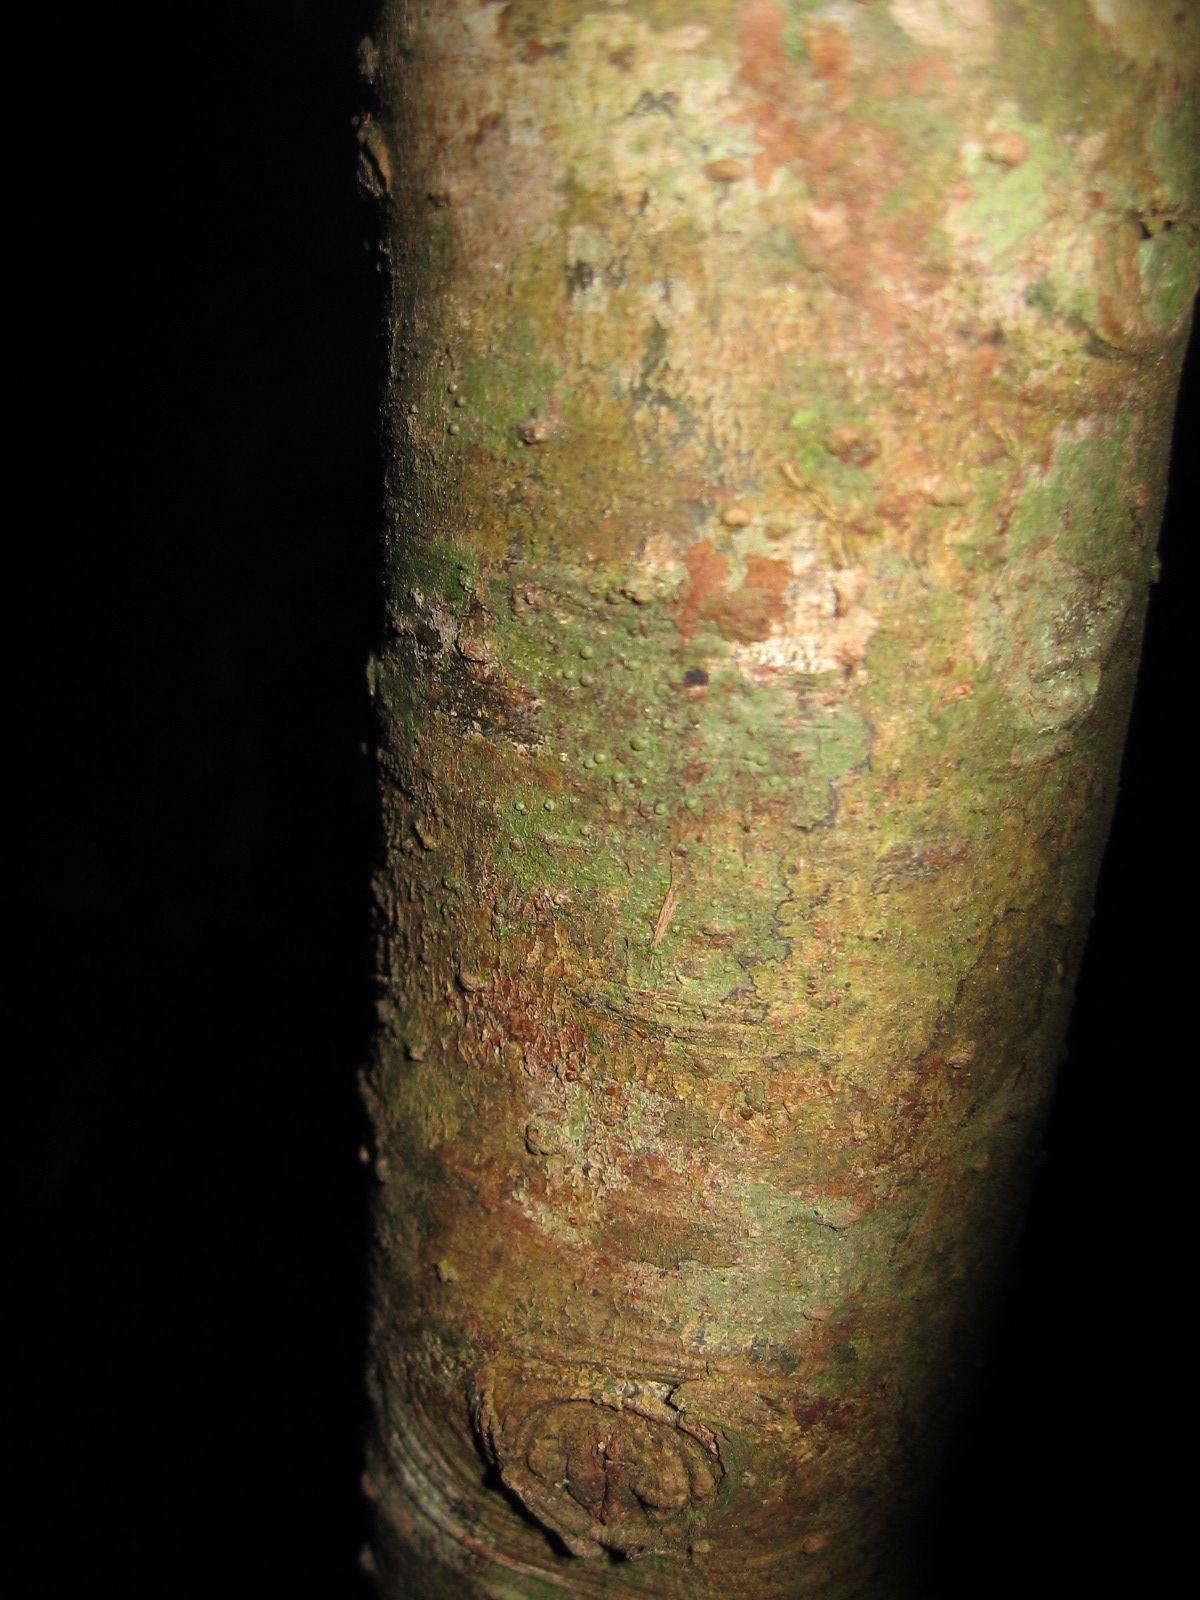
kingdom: Plantae
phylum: Tracheophyta
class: Magnoliopsida
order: Laurales
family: Lauraceae
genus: Ocotea
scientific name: Ocotea heydeana
